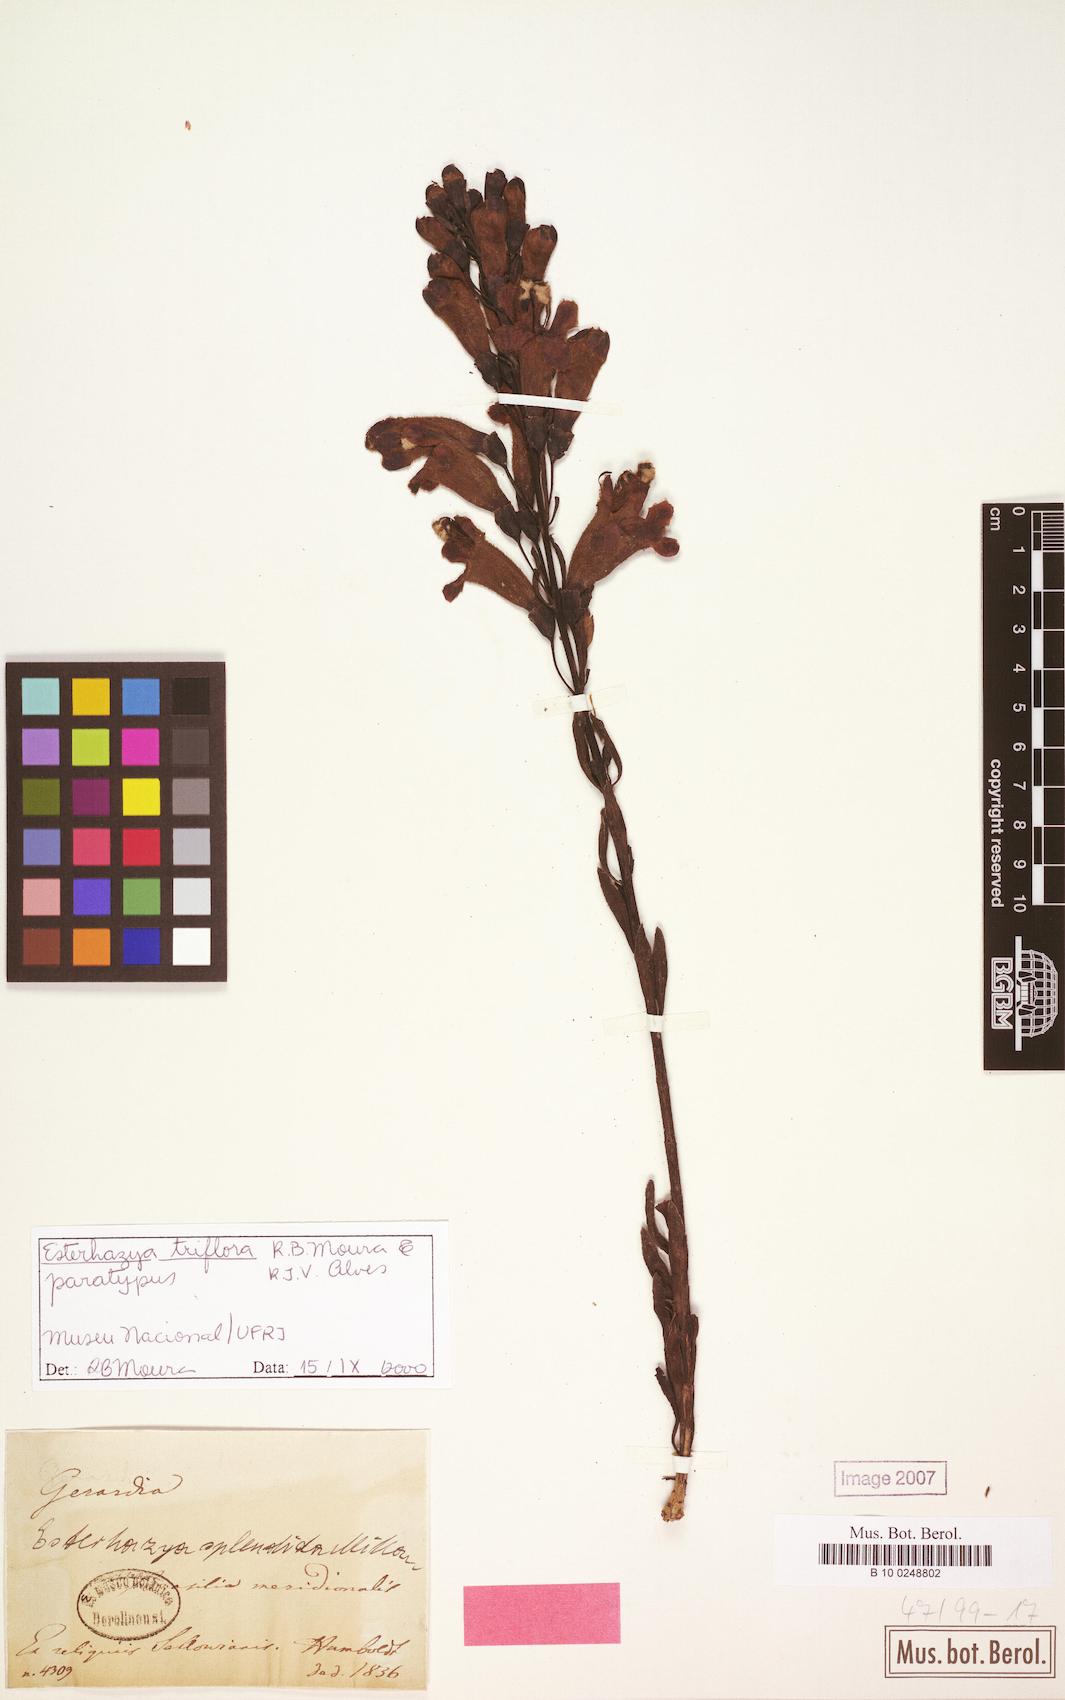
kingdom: Plantae
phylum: Tracheophyta
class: Magnoliopsida
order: Lamiales
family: Orobanchaceae
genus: Esterhazya
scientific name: Esterhazya triflora
